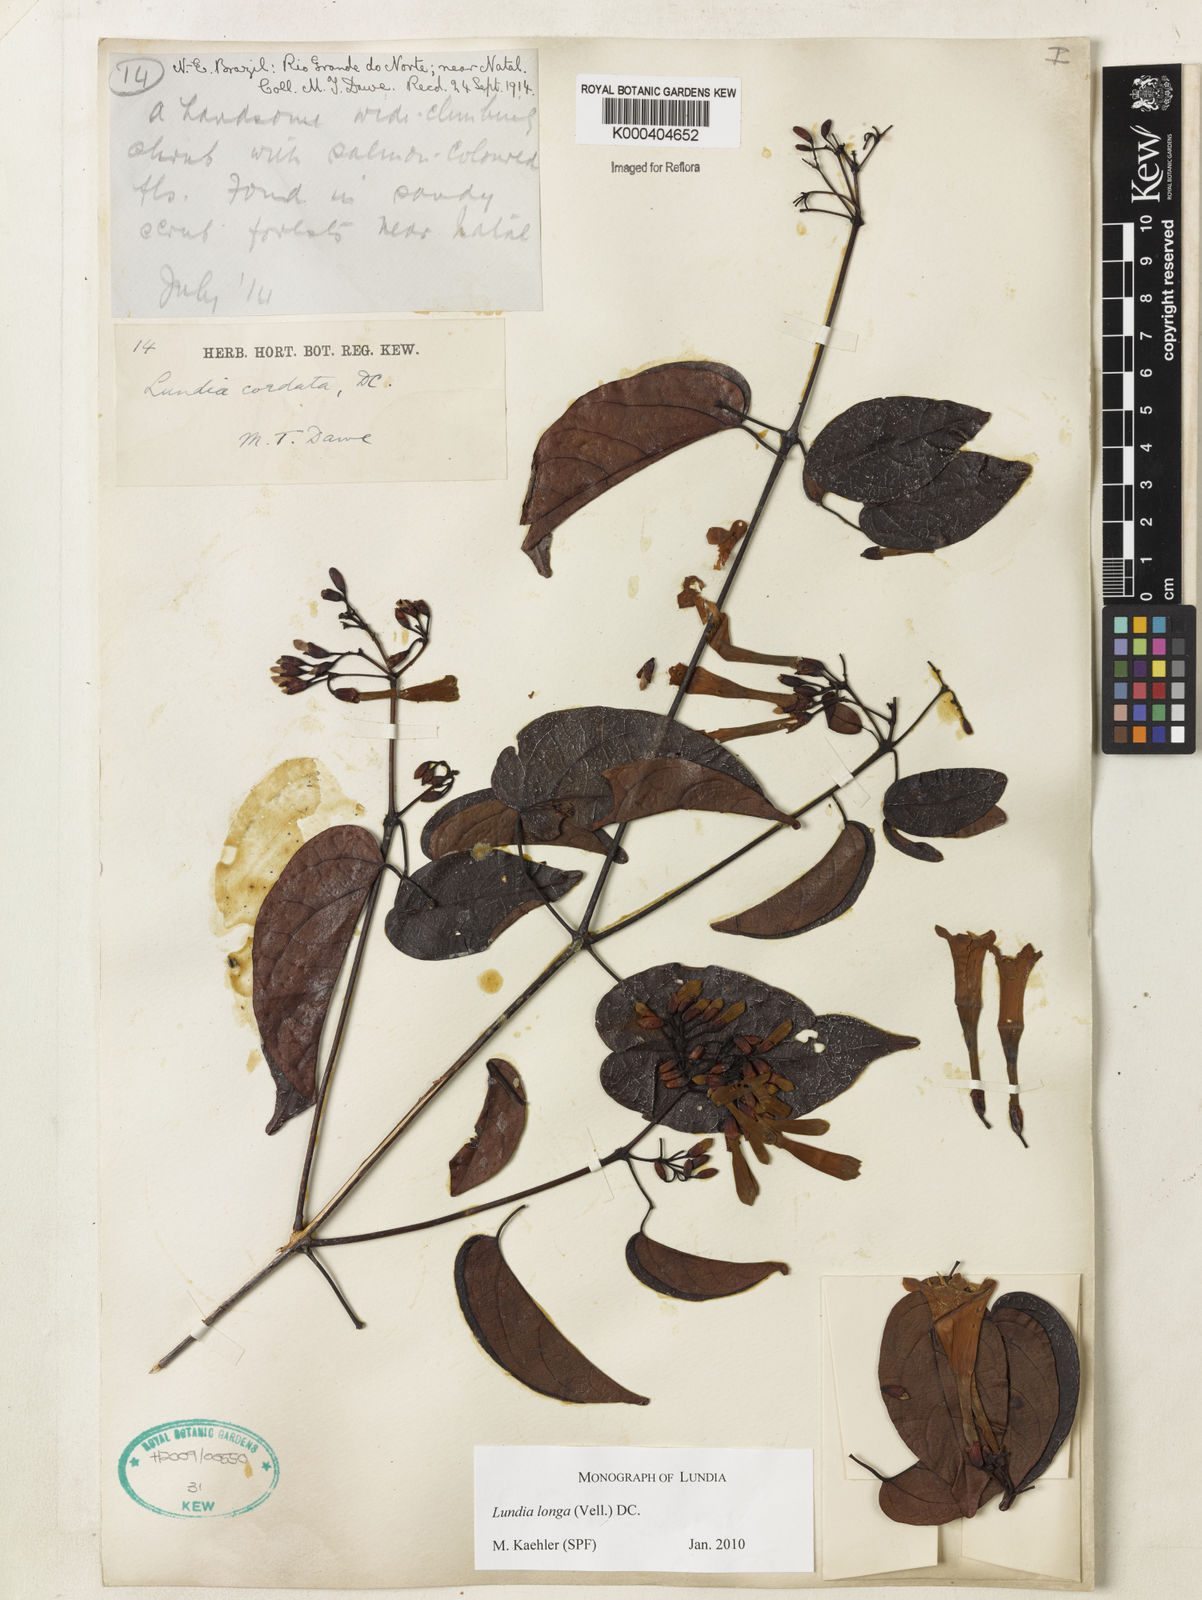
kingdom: Plantae
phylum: Tracheophyta
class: Magnoliopsida
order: Lamiales
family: Bignoniaceae
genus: Lundia
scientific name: Lundia longa
